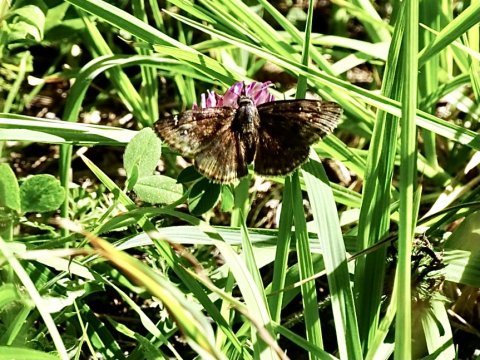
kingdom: Animalia
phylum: Arthropoda
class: Insecta
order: Lepidoptera
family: Hesperiidae
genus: Gesta
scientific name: Gesta
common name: Horace's Duskywing
